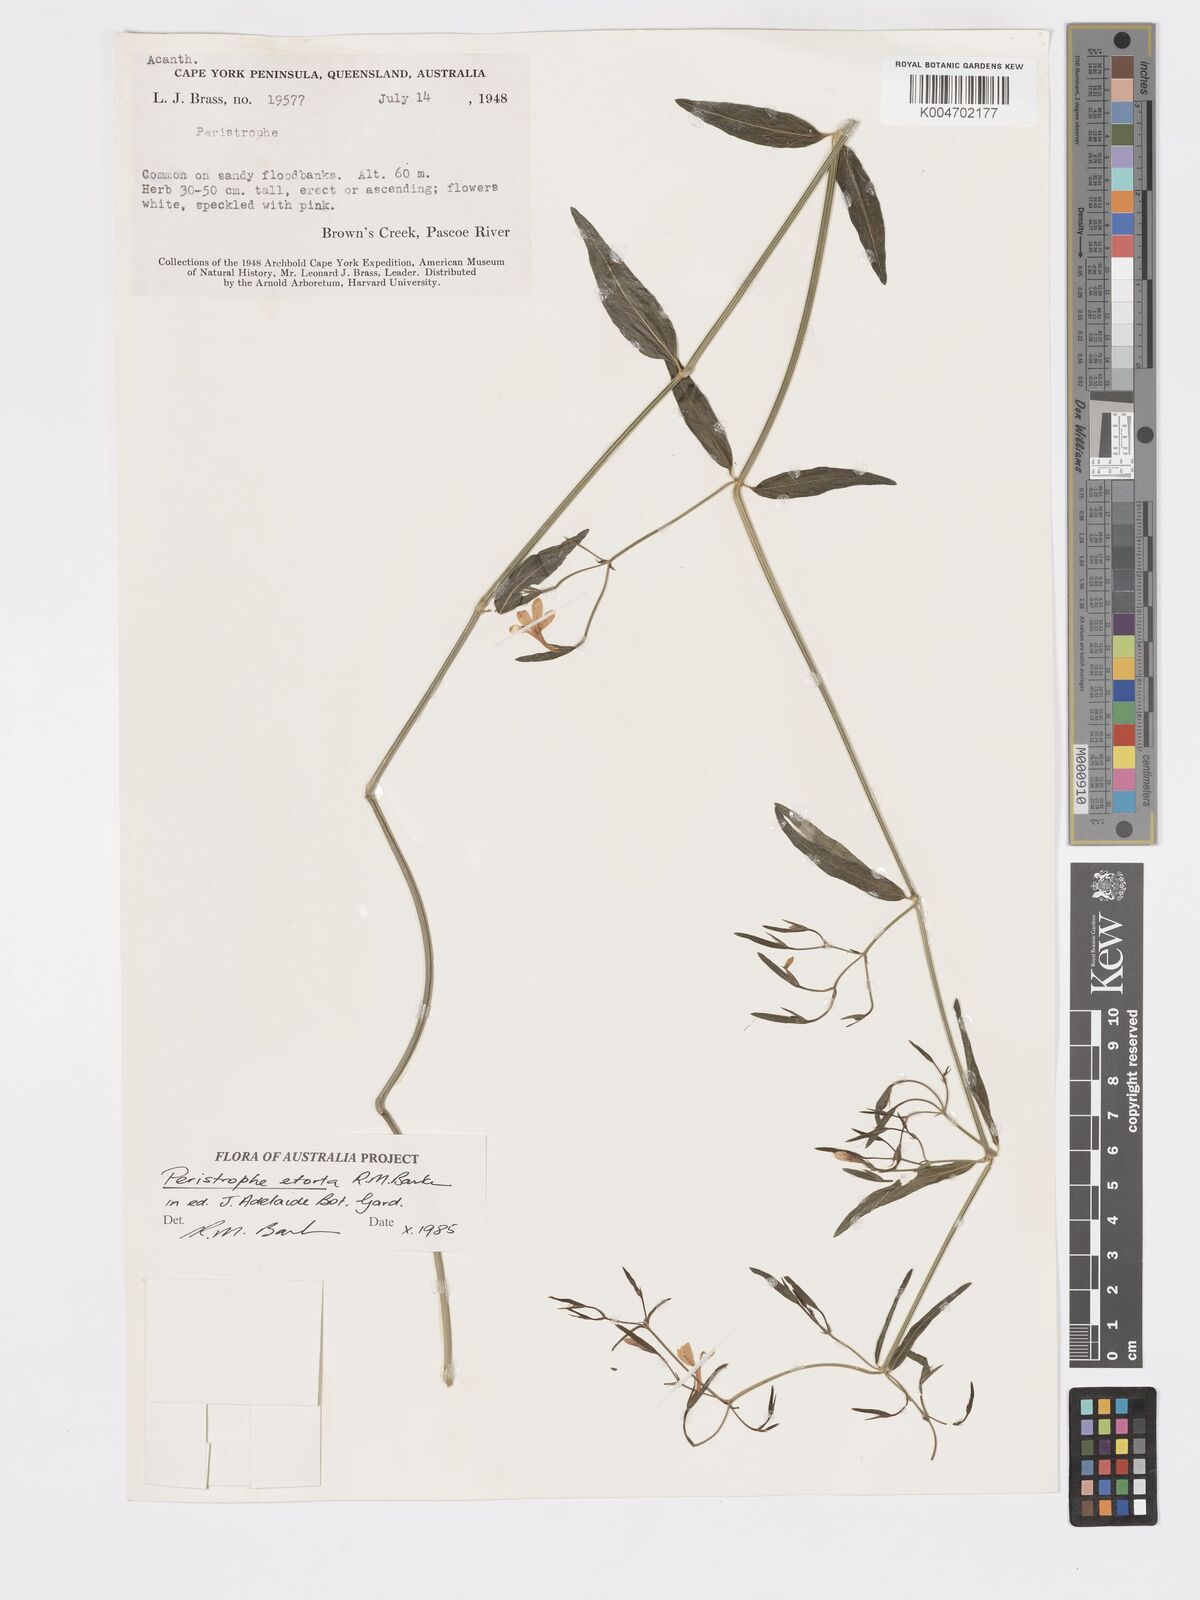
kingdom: Plantae
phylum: Tracheophyta
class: Magnoliopsida
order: Lamiales
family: Acanthaceae
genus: Dicliptera
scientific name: Dicliptera extenta
